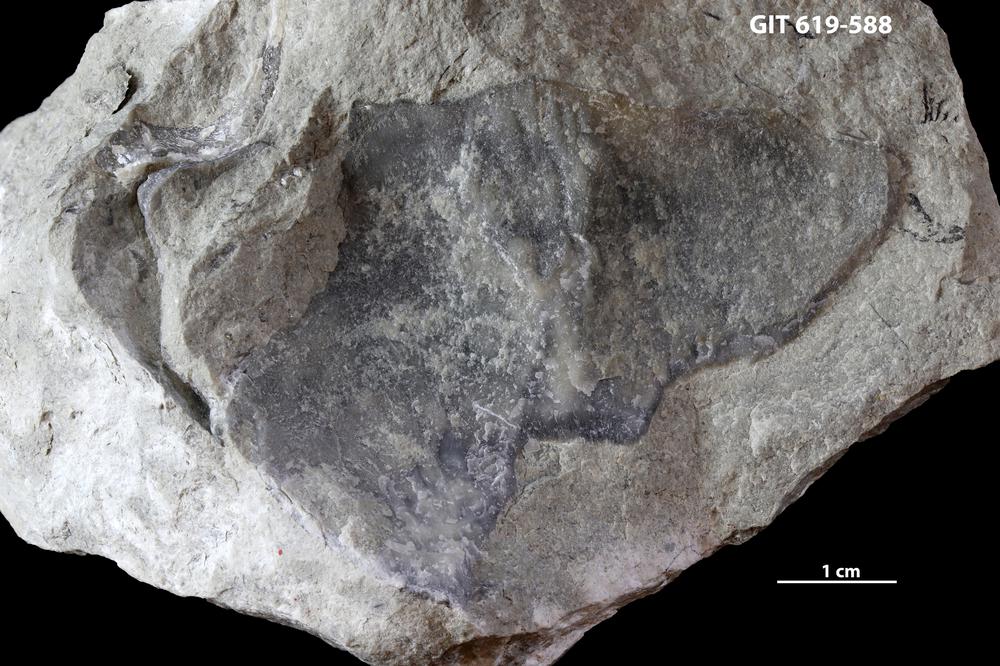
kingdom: Animalia
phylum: Brachiopoda
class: Rhynchonellata
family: Porambonitidae
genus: Porambonites
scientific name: Porambonites
